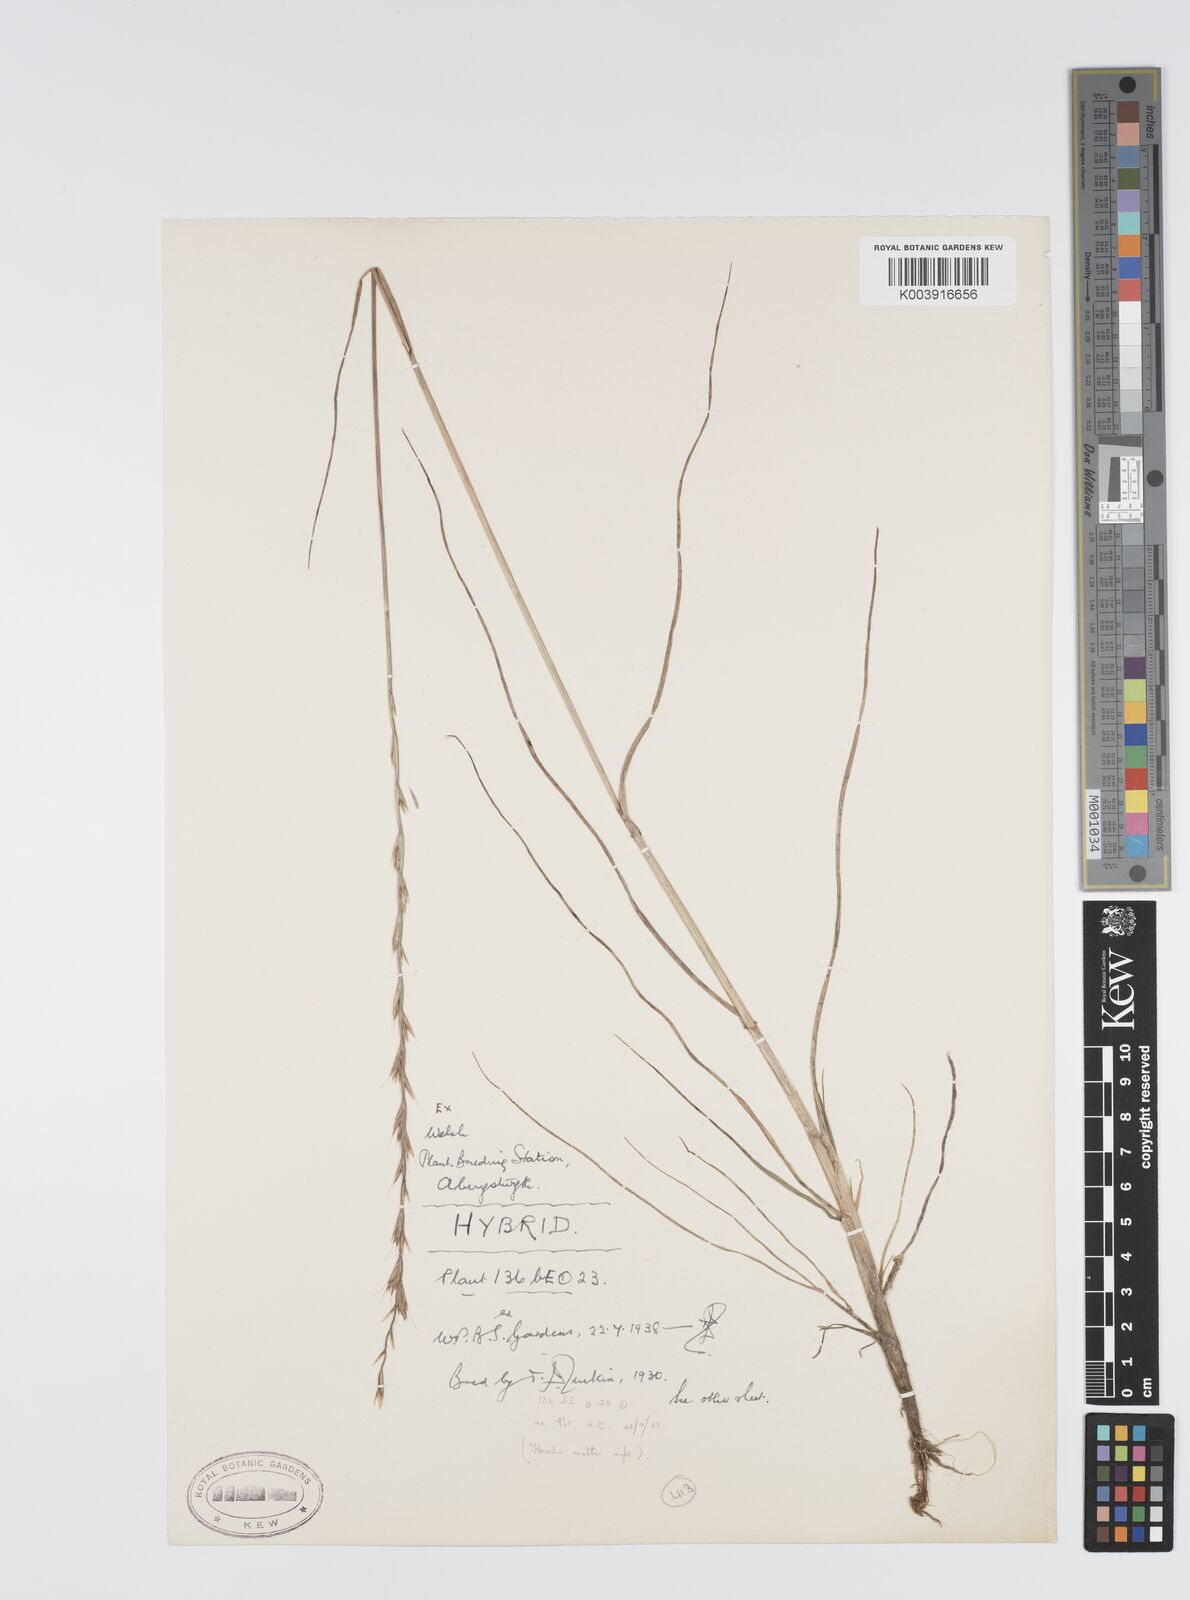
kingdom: Plantae
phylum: Tracheophyta
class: Liliopsida
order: Poales
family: Poaceae
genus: Lolium
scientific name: Lolium perenne
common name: Perennial ryegrass
